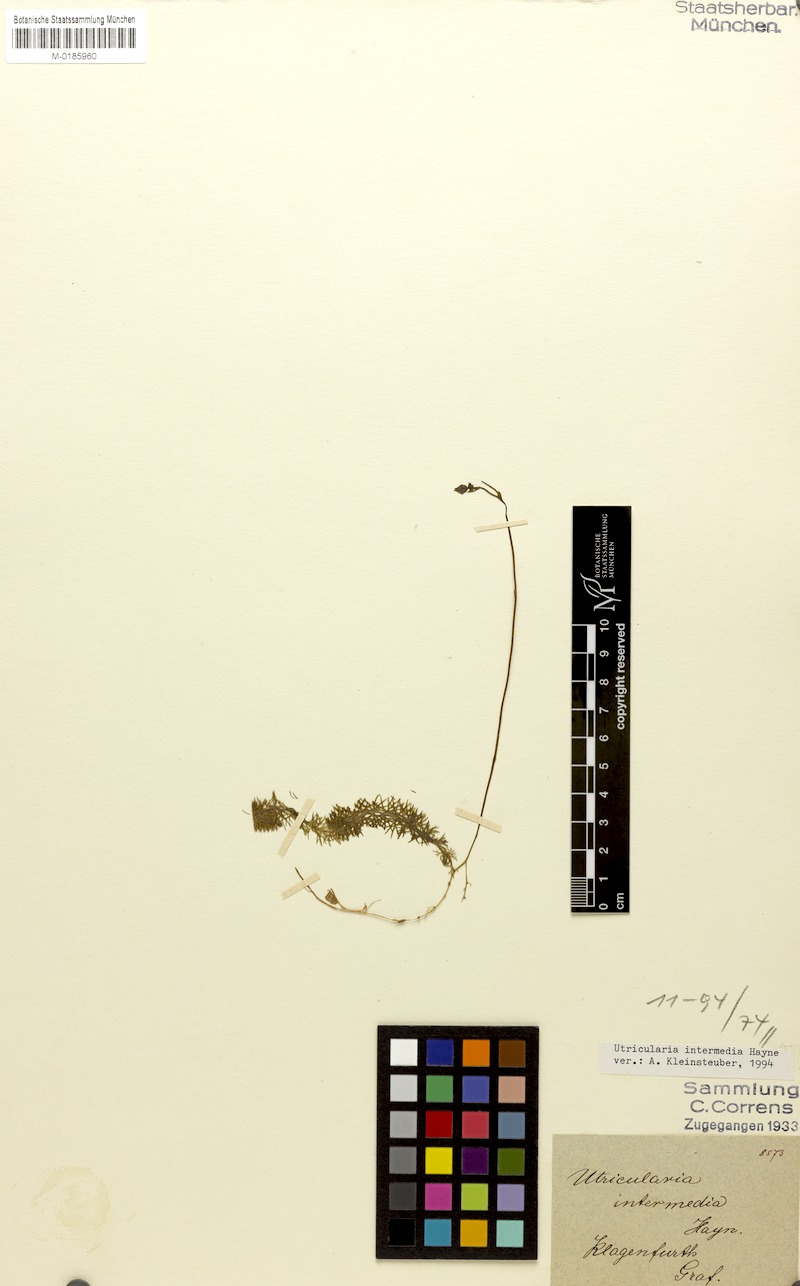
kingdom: Plantae
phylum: Tracheophyta
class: Magnoliopsida
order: Lamiales
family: Lentibulariaceae
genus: Utricularia
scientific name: Utricularia intermedia
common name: Intermediate bladderwort
